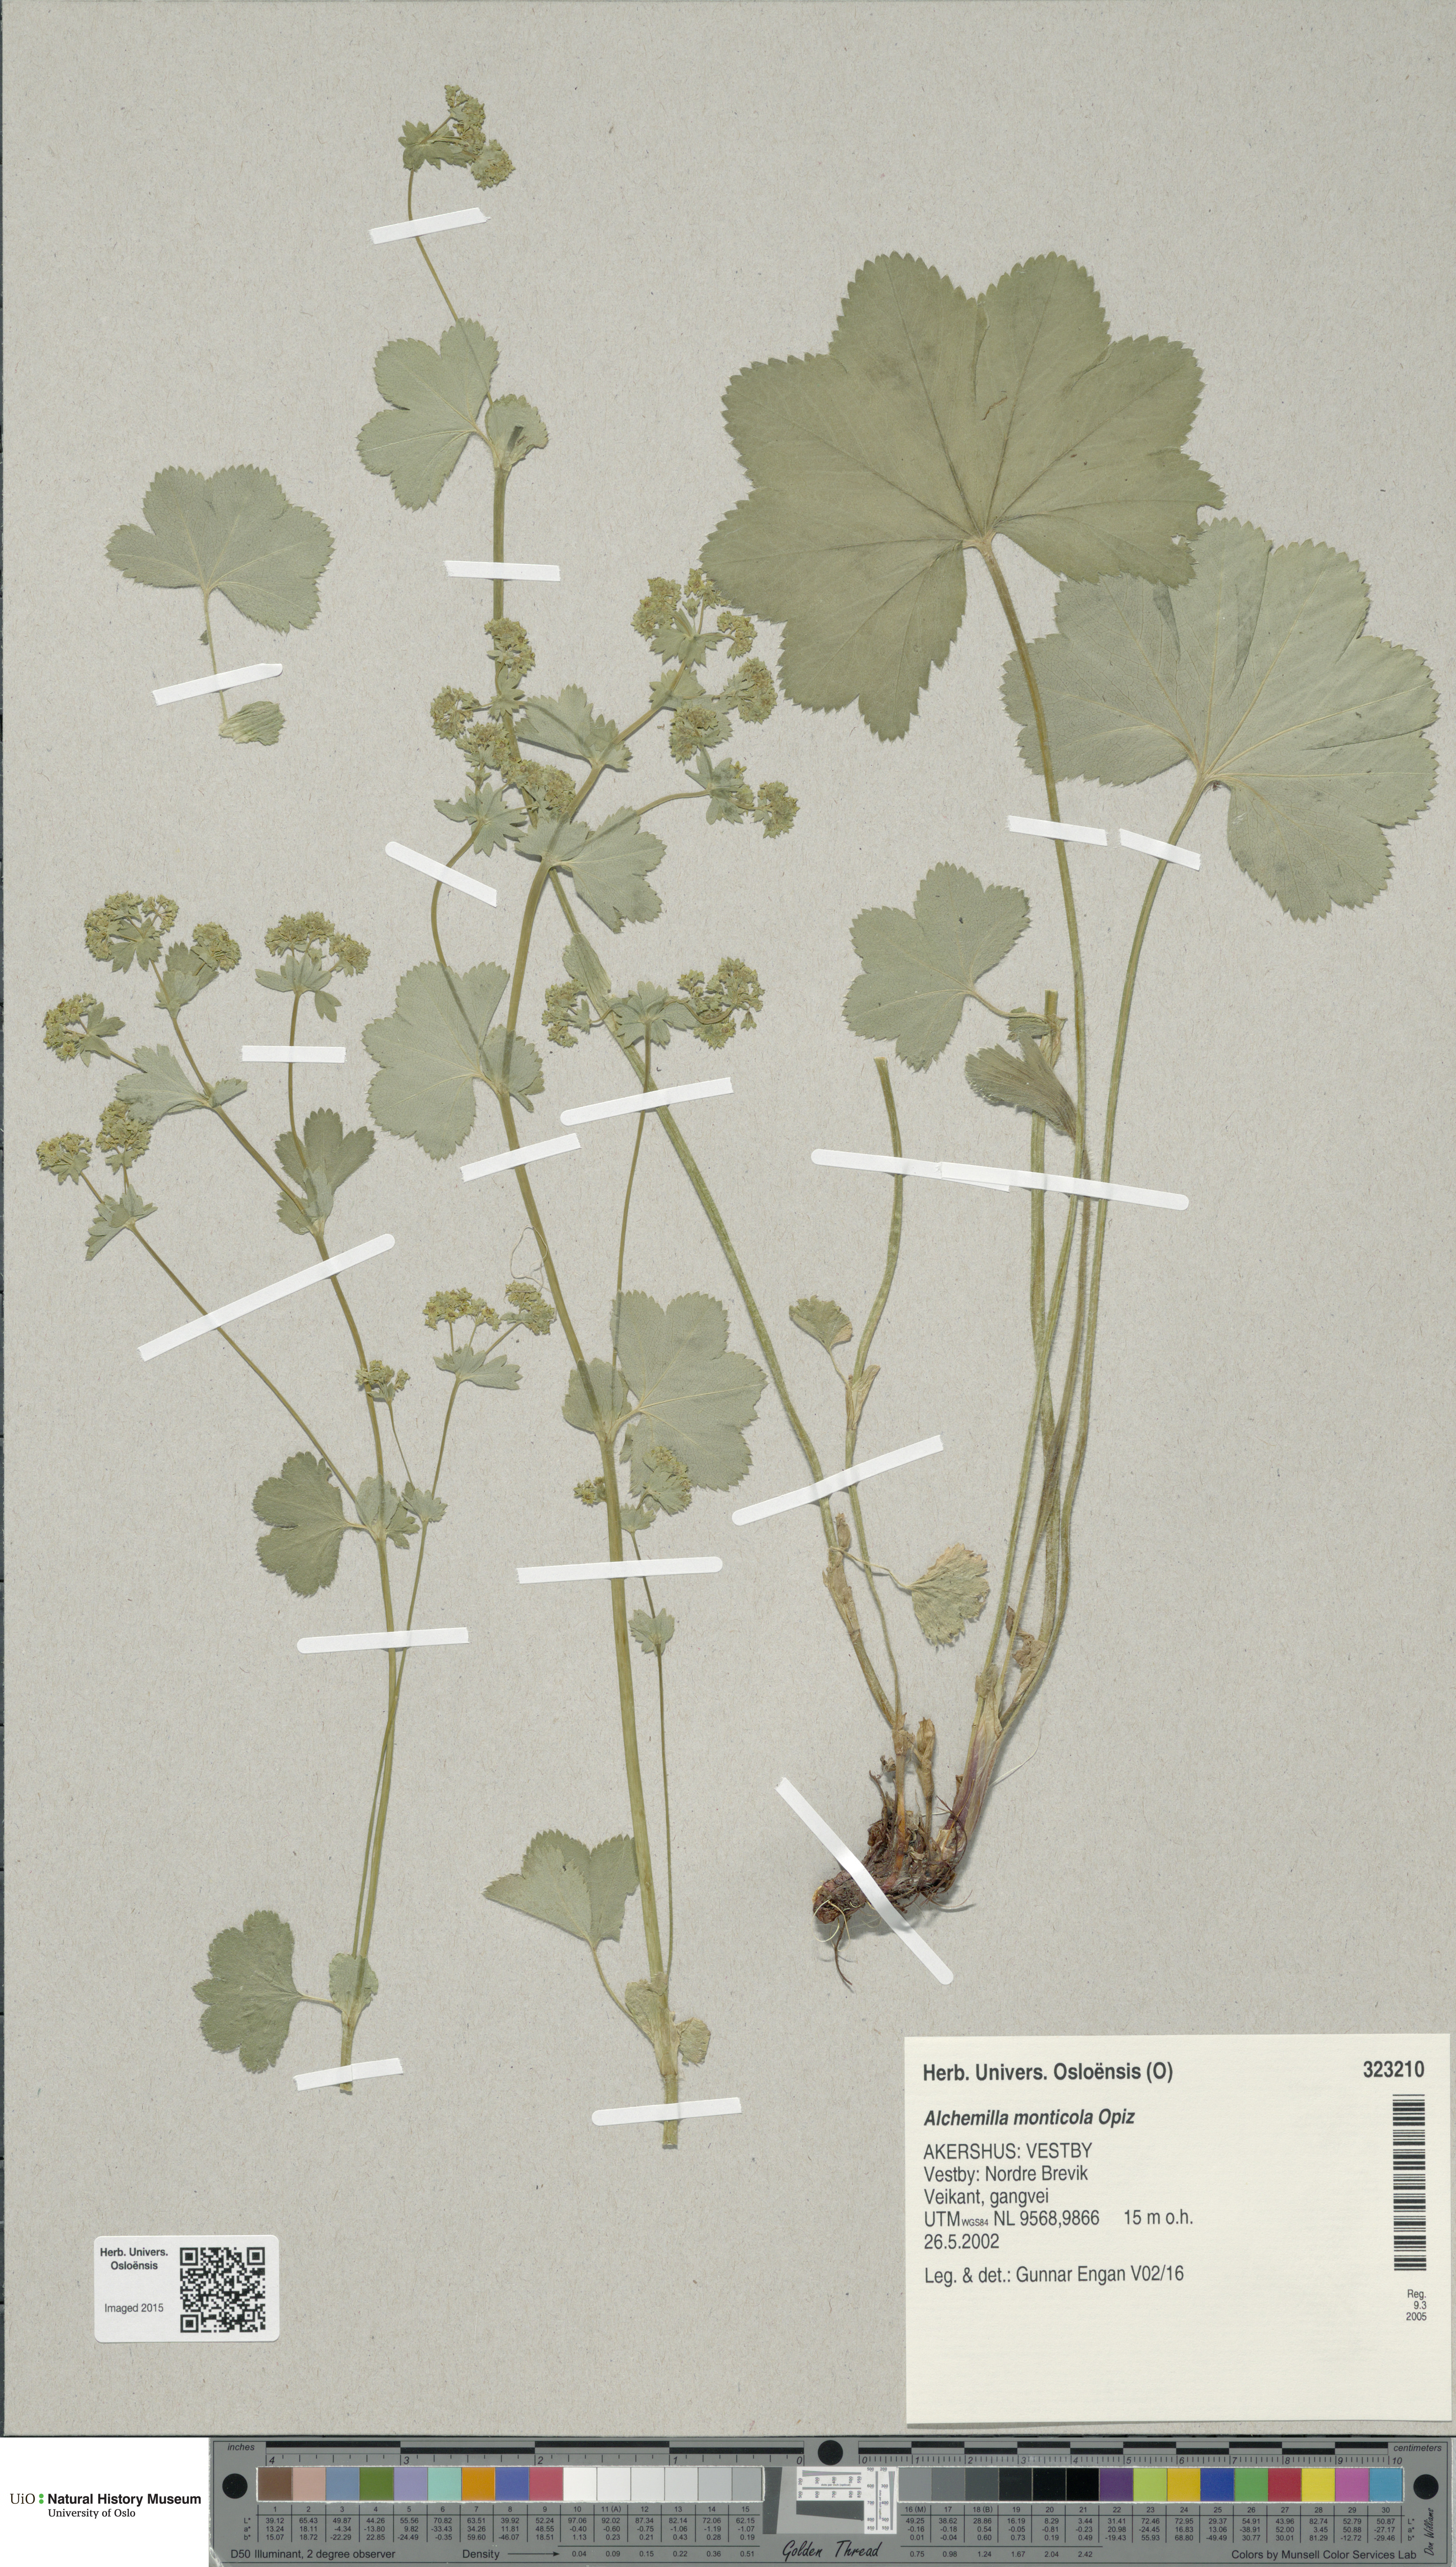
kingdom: Plantae
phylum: Tracheophyta
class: Magnoliopsida
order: Rosales
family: Rosaceae
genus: Alchemilla
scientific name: Alchemilla monticola
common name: Hairy lady's mantle
